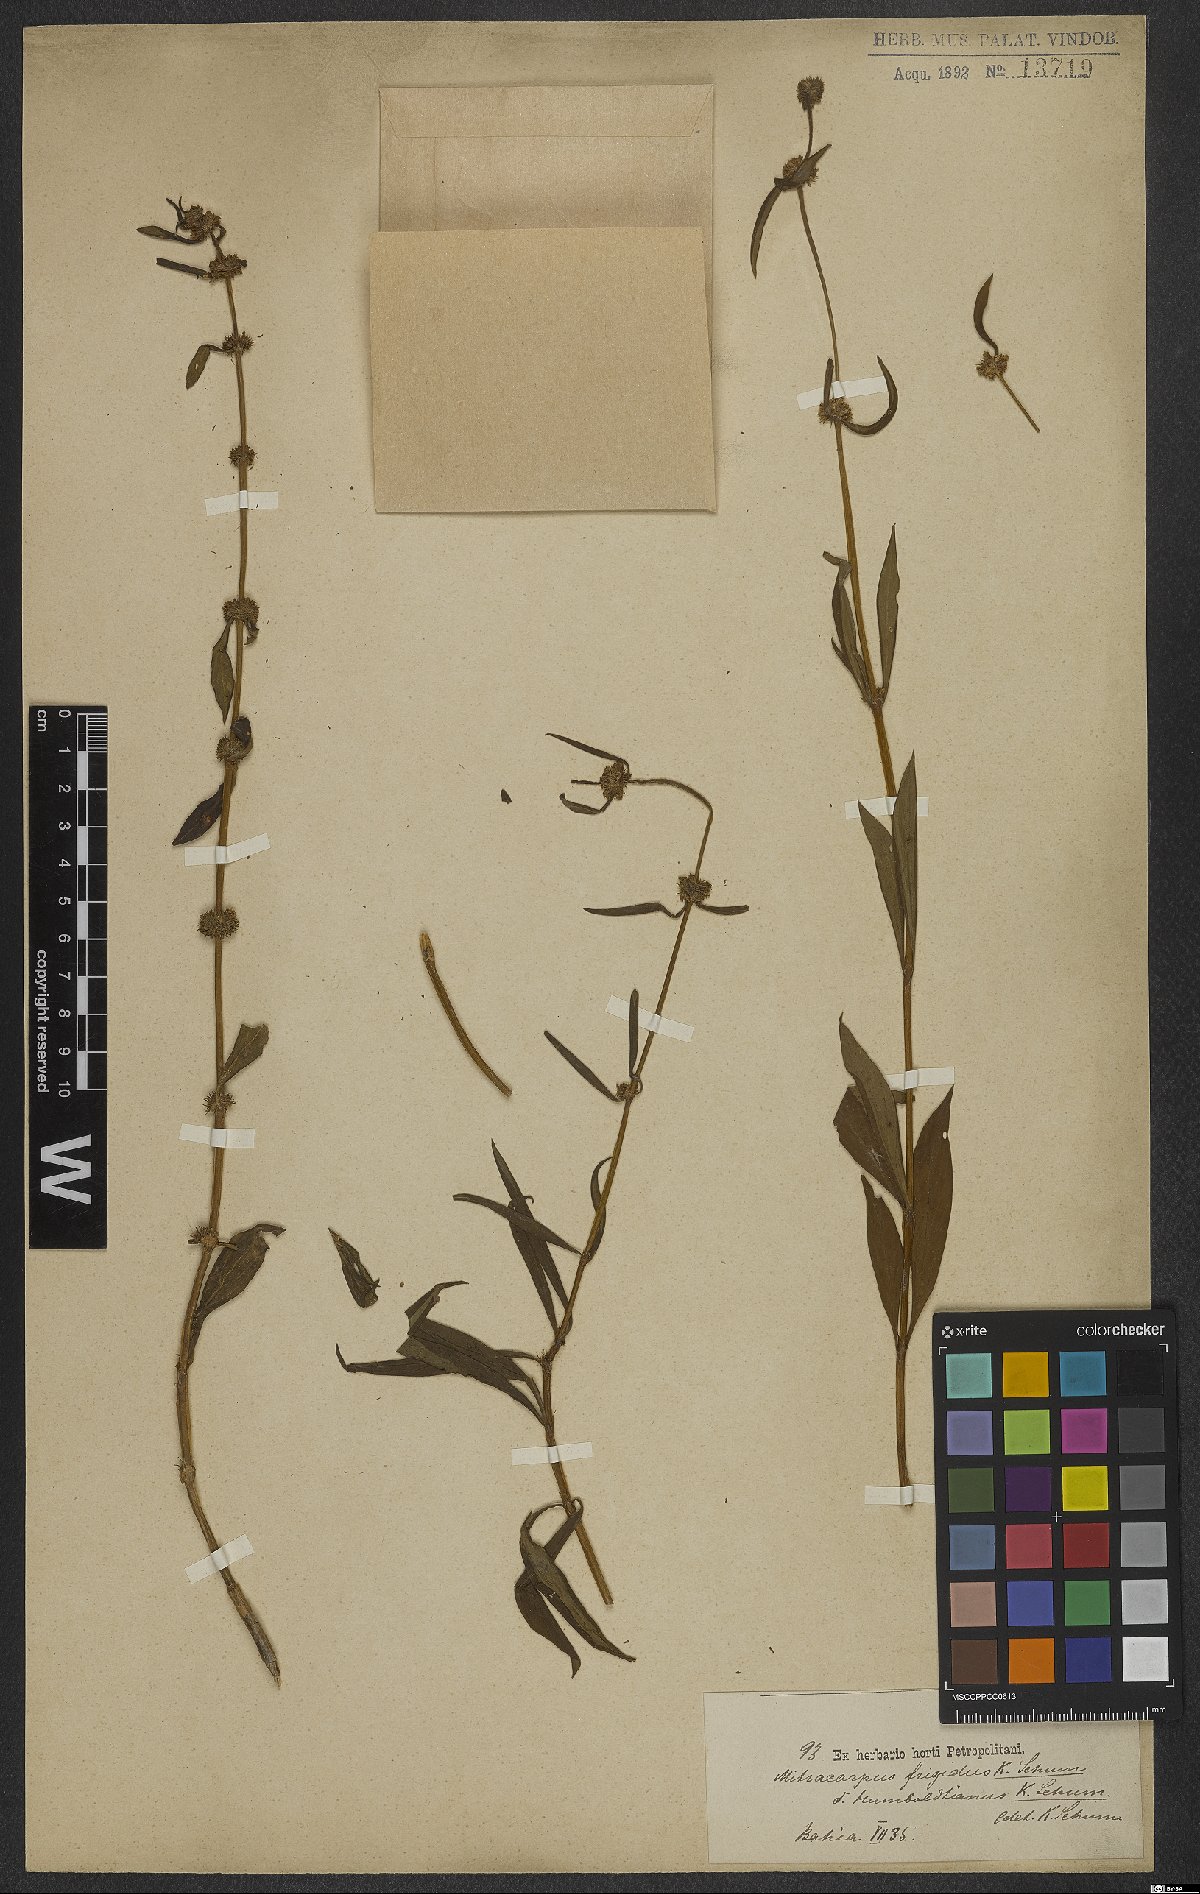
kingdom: Plantae
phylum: Tracheophyta
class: Magnoliopsida
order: Gentianales
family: Rubiaceae
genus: Mitracarpus
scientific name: Mitracarpus frigidus
